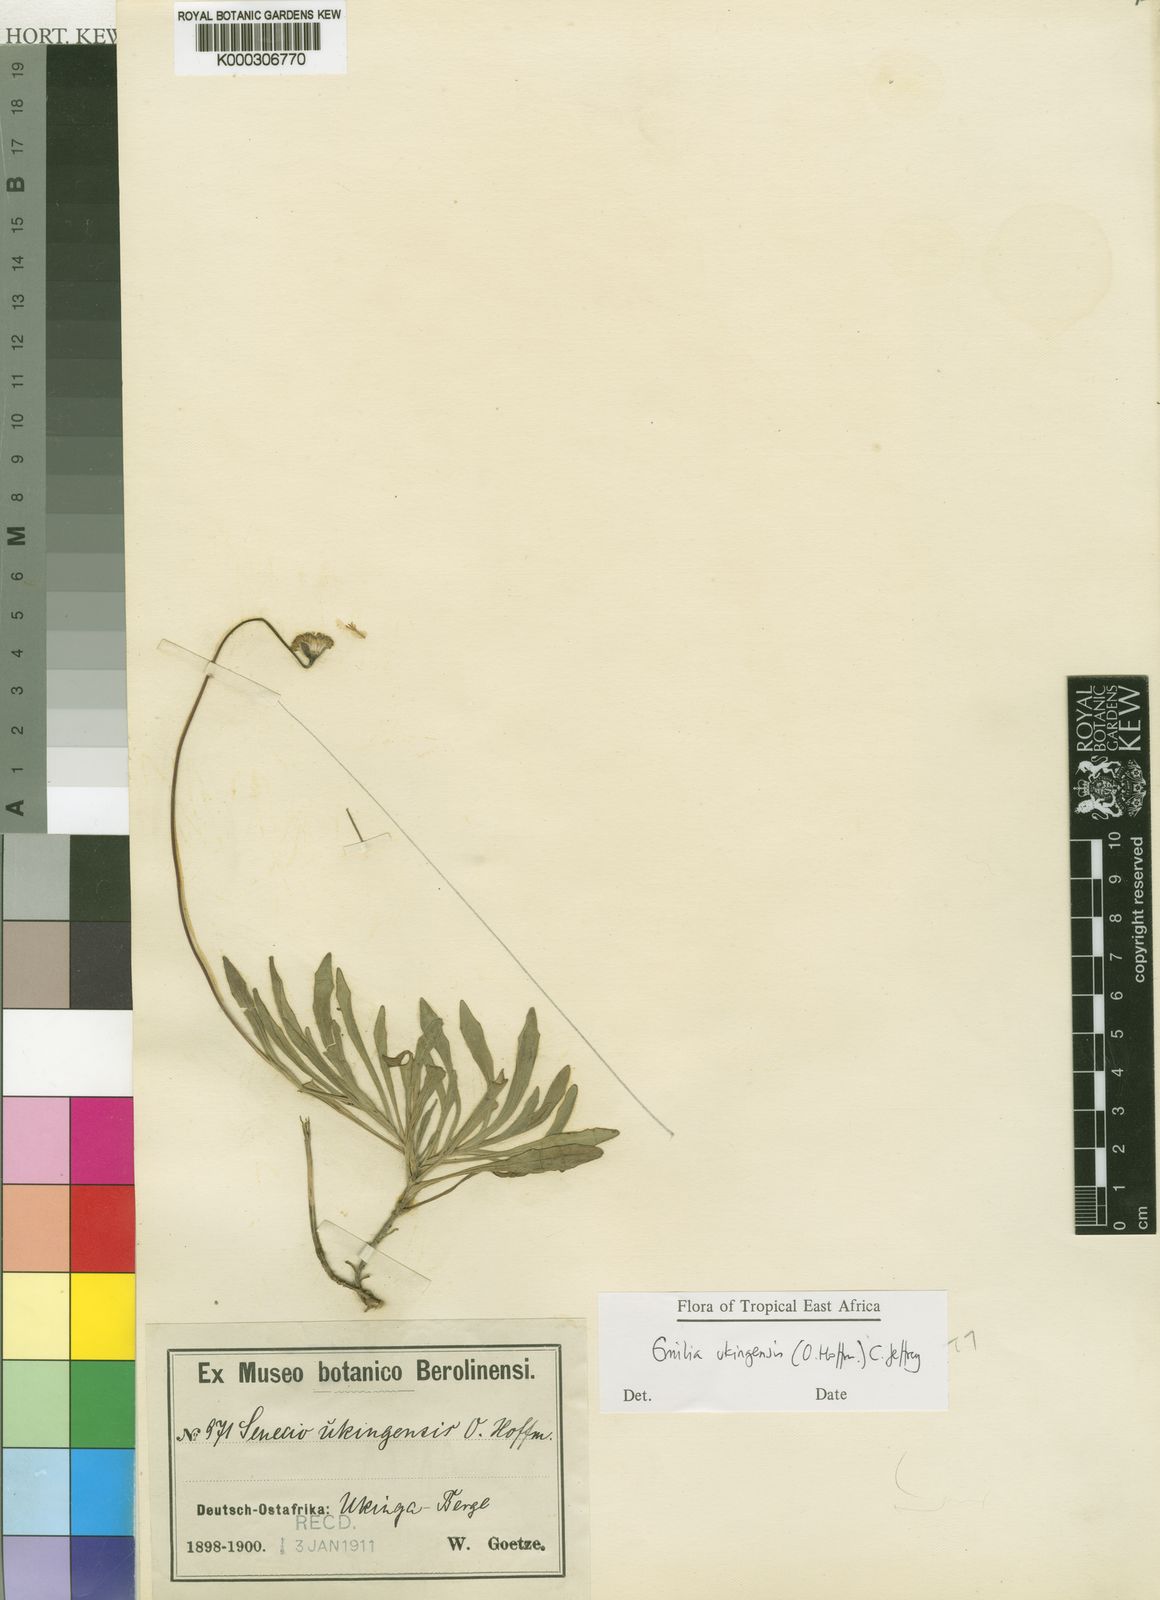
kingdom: Plantae
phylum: Tracheophyta
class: Magnoliopsida
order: Asterales
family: Asteraceae
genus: Emilia
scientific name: Emilia ukingensis
